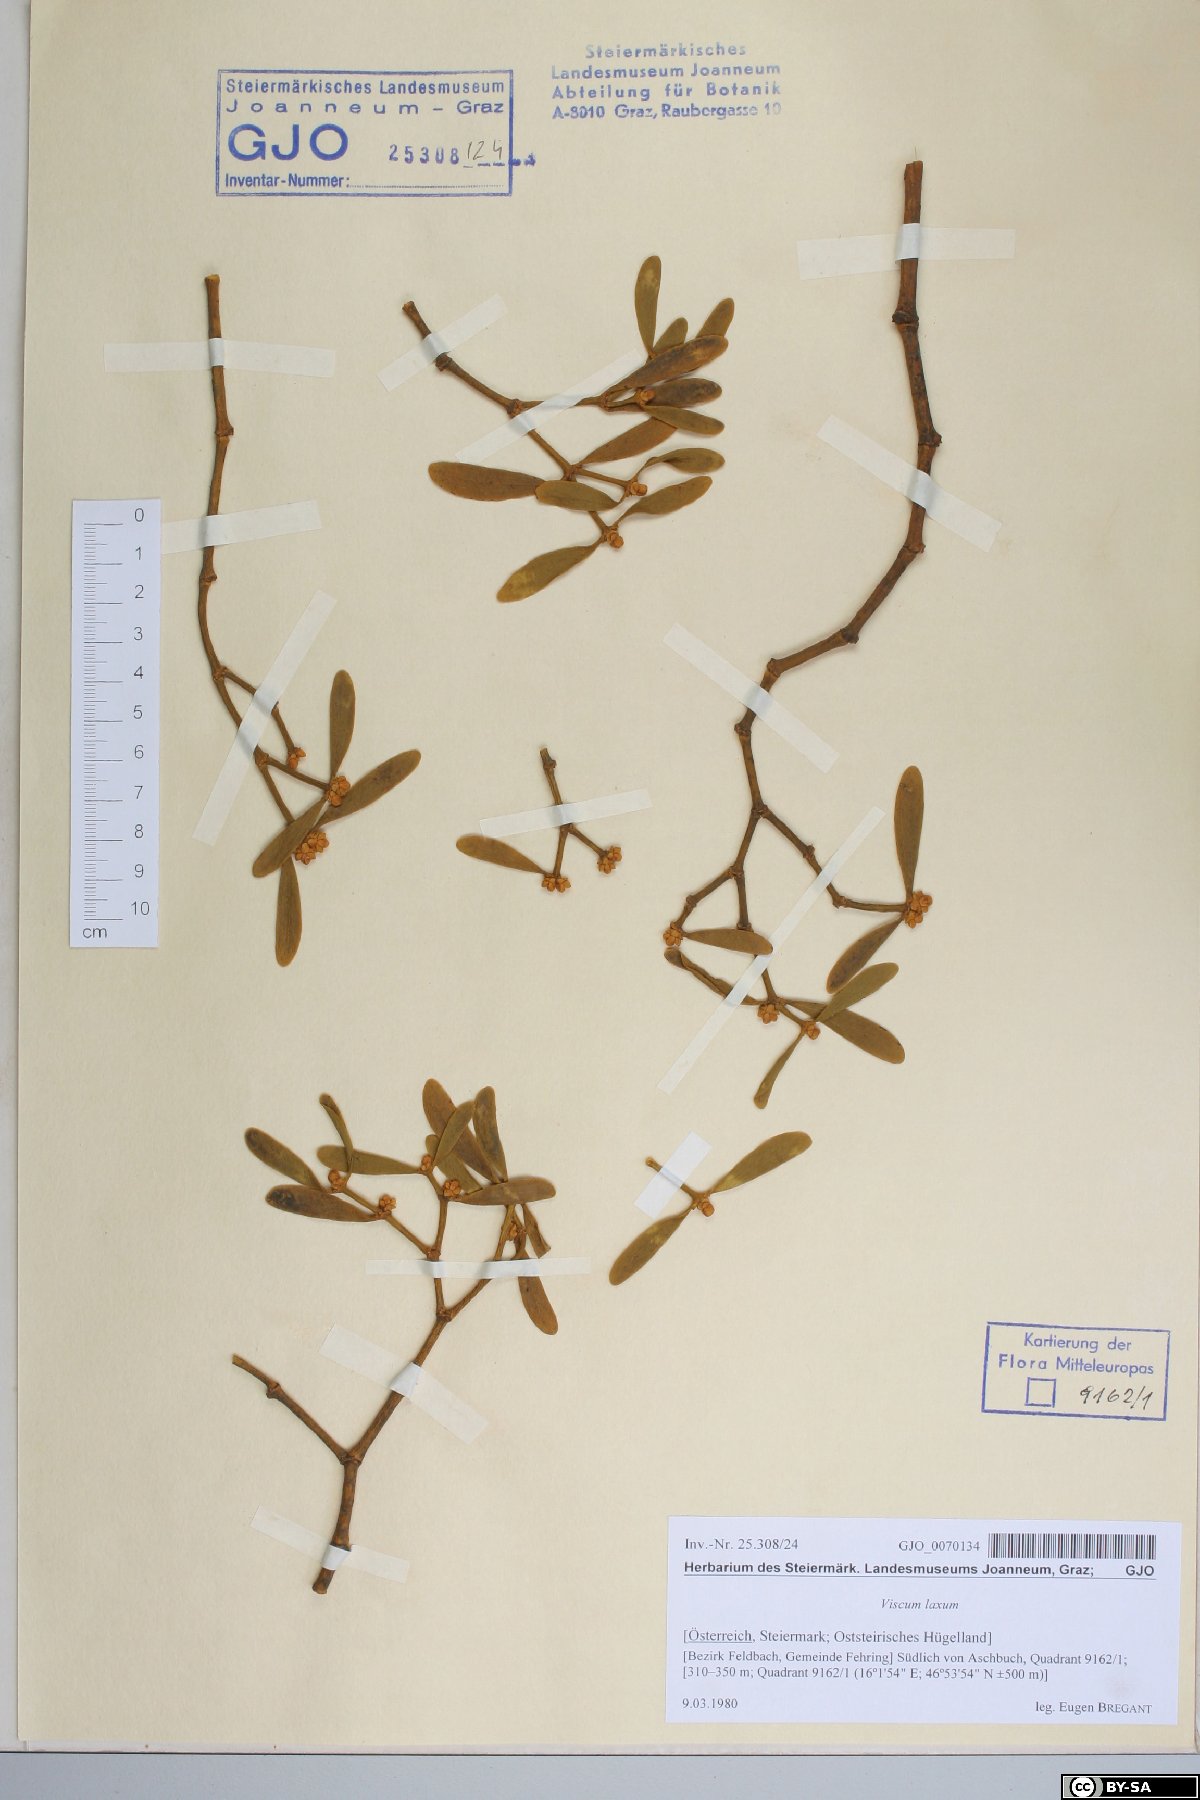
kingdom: Plantae
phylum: Tracheophyta
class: Magnoliopsida
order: Santalales
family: Viscaceae
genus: Viscum
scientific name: Viscum laxum
